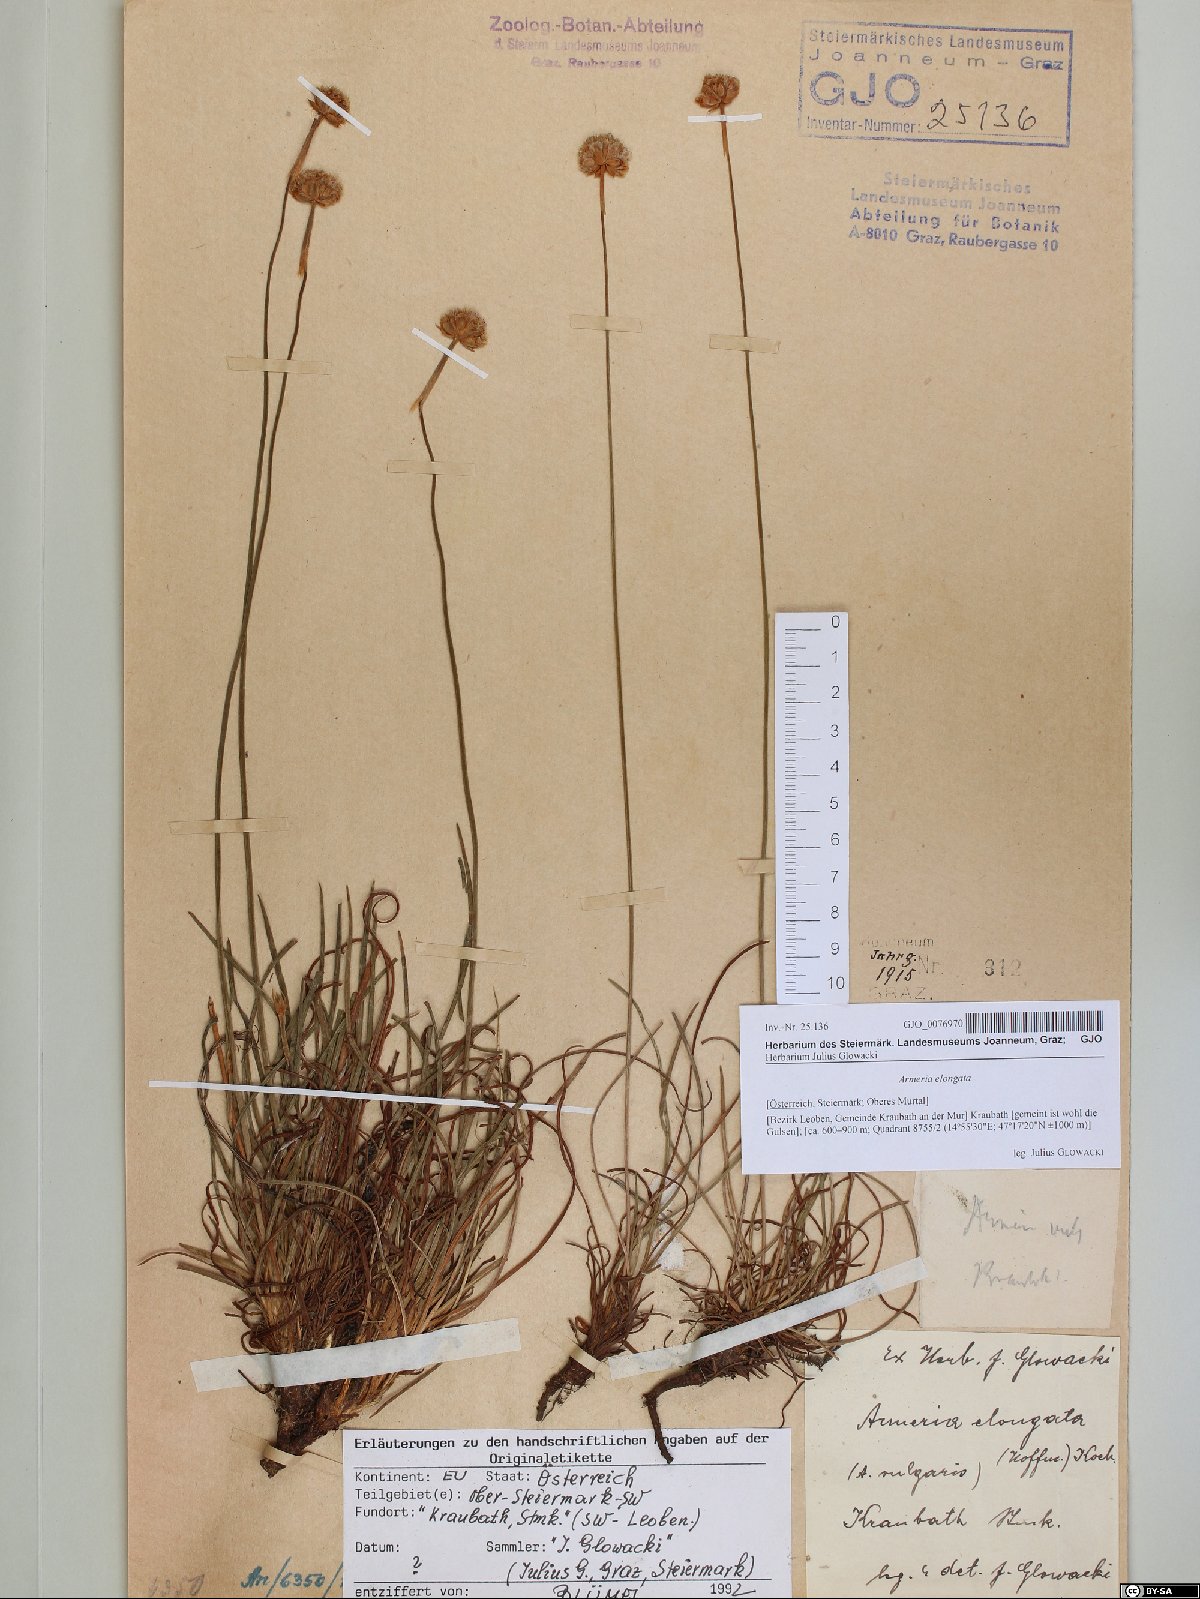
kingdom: Plantae
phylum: Tracheophyta
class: Magnoliopsida
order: Caryophyllales
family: Plumbaginaceae
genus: Armeria
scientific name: Armeria maritima
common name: Thrift
